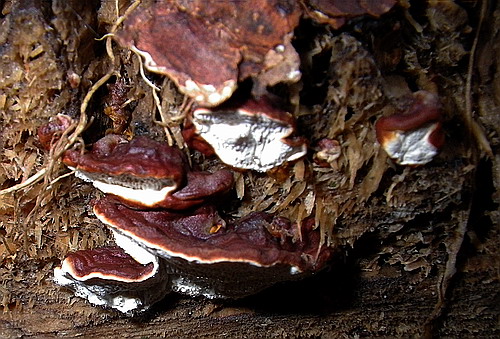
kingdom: Fungi
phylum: Basidiomycota
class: Agaricomycetes
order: Russulales
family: Bondarzewiaceae
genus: Heterobasidion
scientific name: Heterobasidion annosum
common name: almindelig rodfordærver
